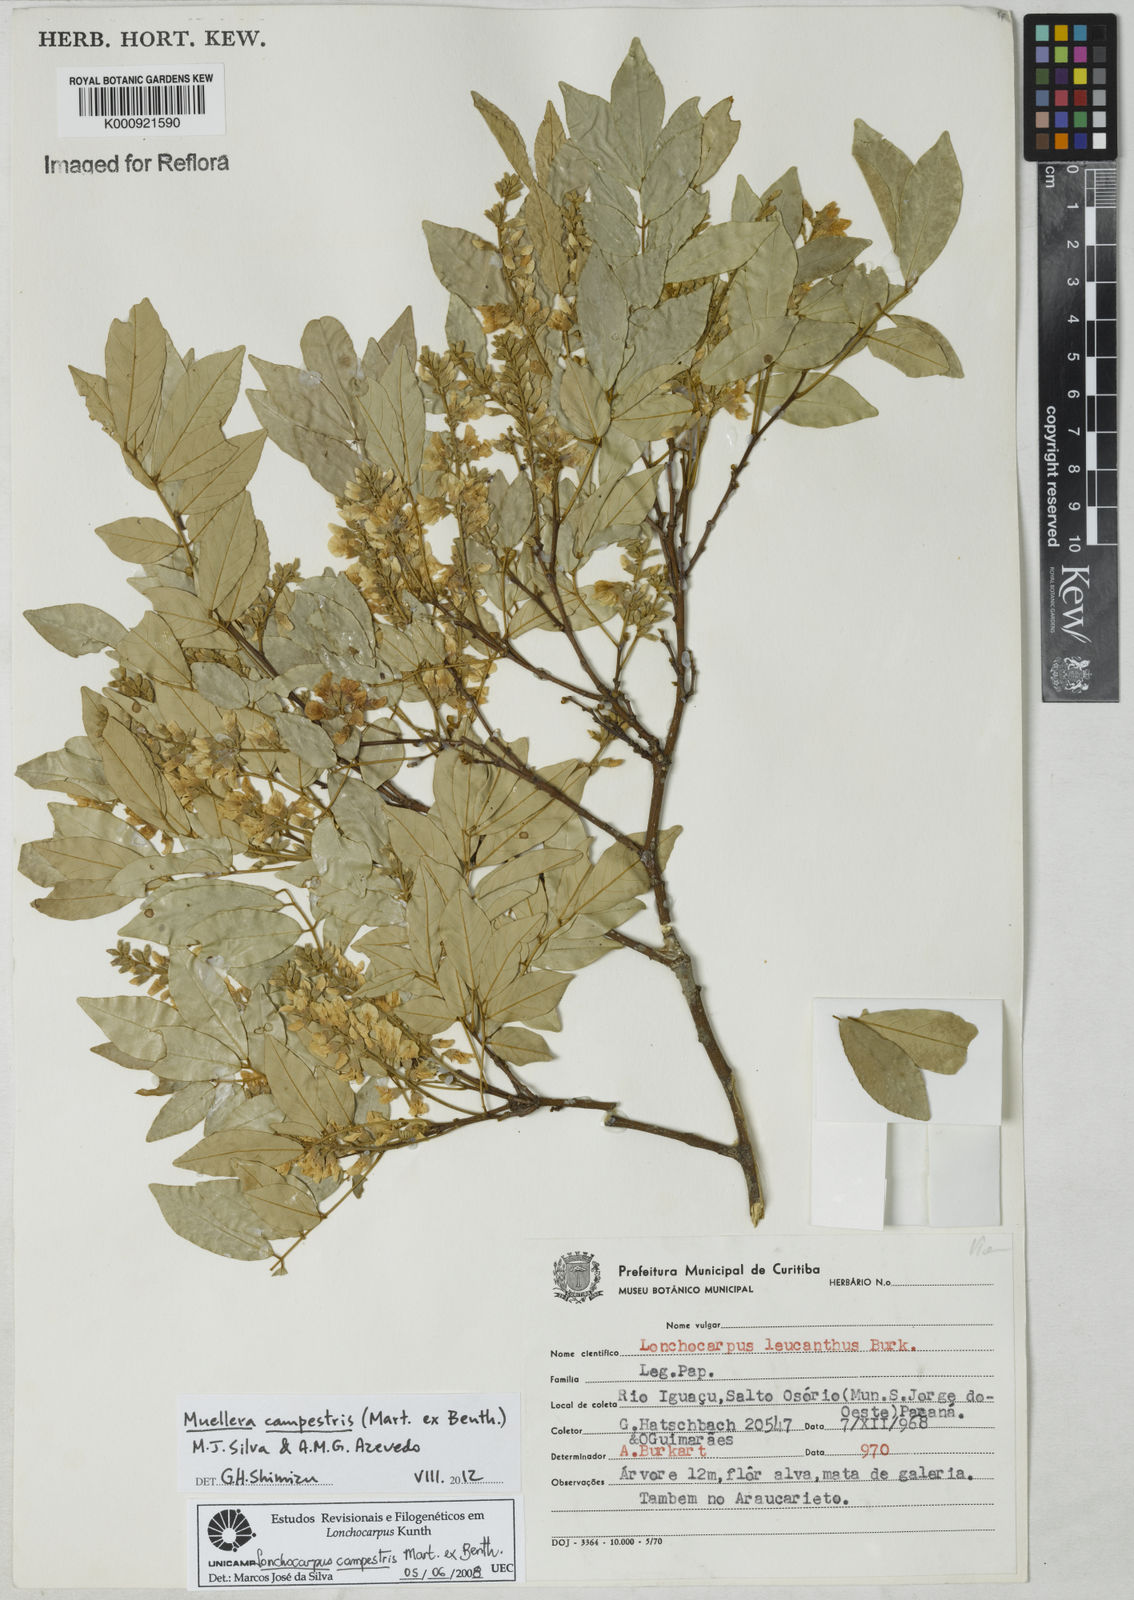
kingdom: Plantae
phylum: Tracheophyta
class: Magnoliopsida
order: Fabales
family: Fabaceae
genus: Muellera
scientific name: Muellera campestris
